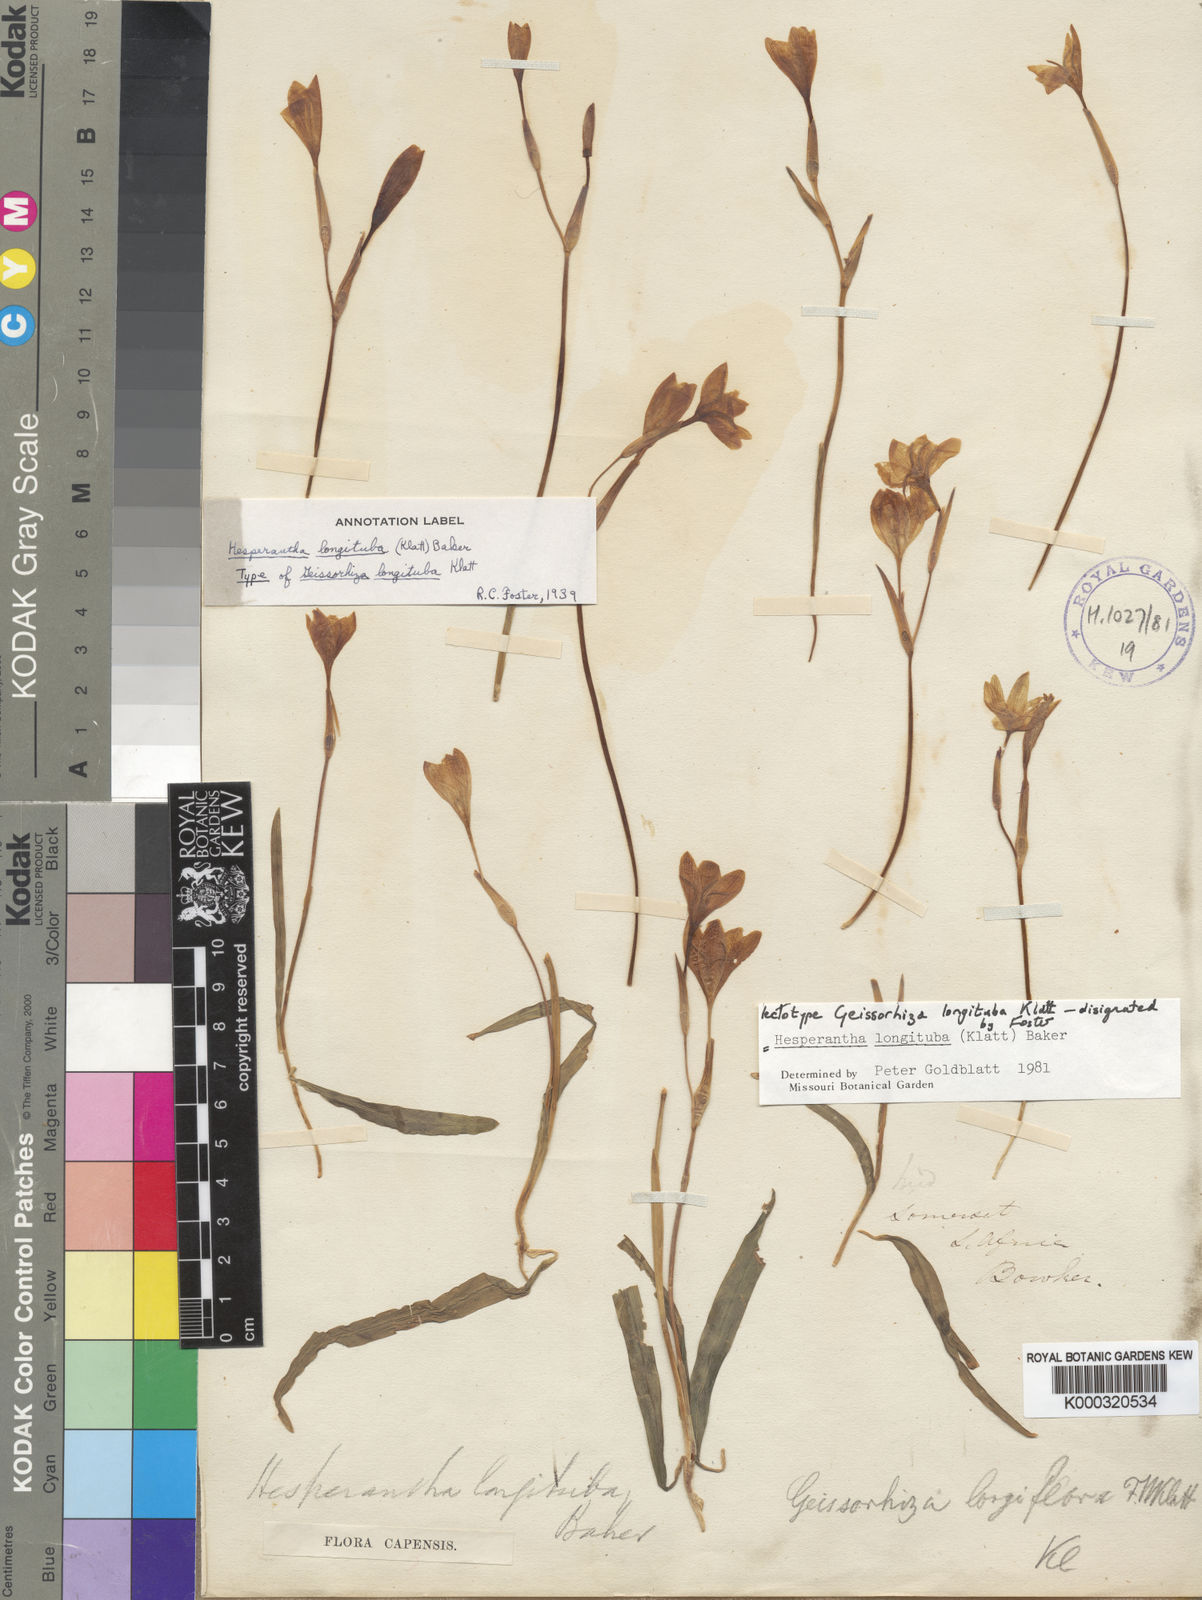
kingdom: Plantae
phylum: Tracheophyta
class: Liliopsida
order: Asparagales
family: Iridaceae
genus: Hesperantha
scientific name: Hesperantha longituba
